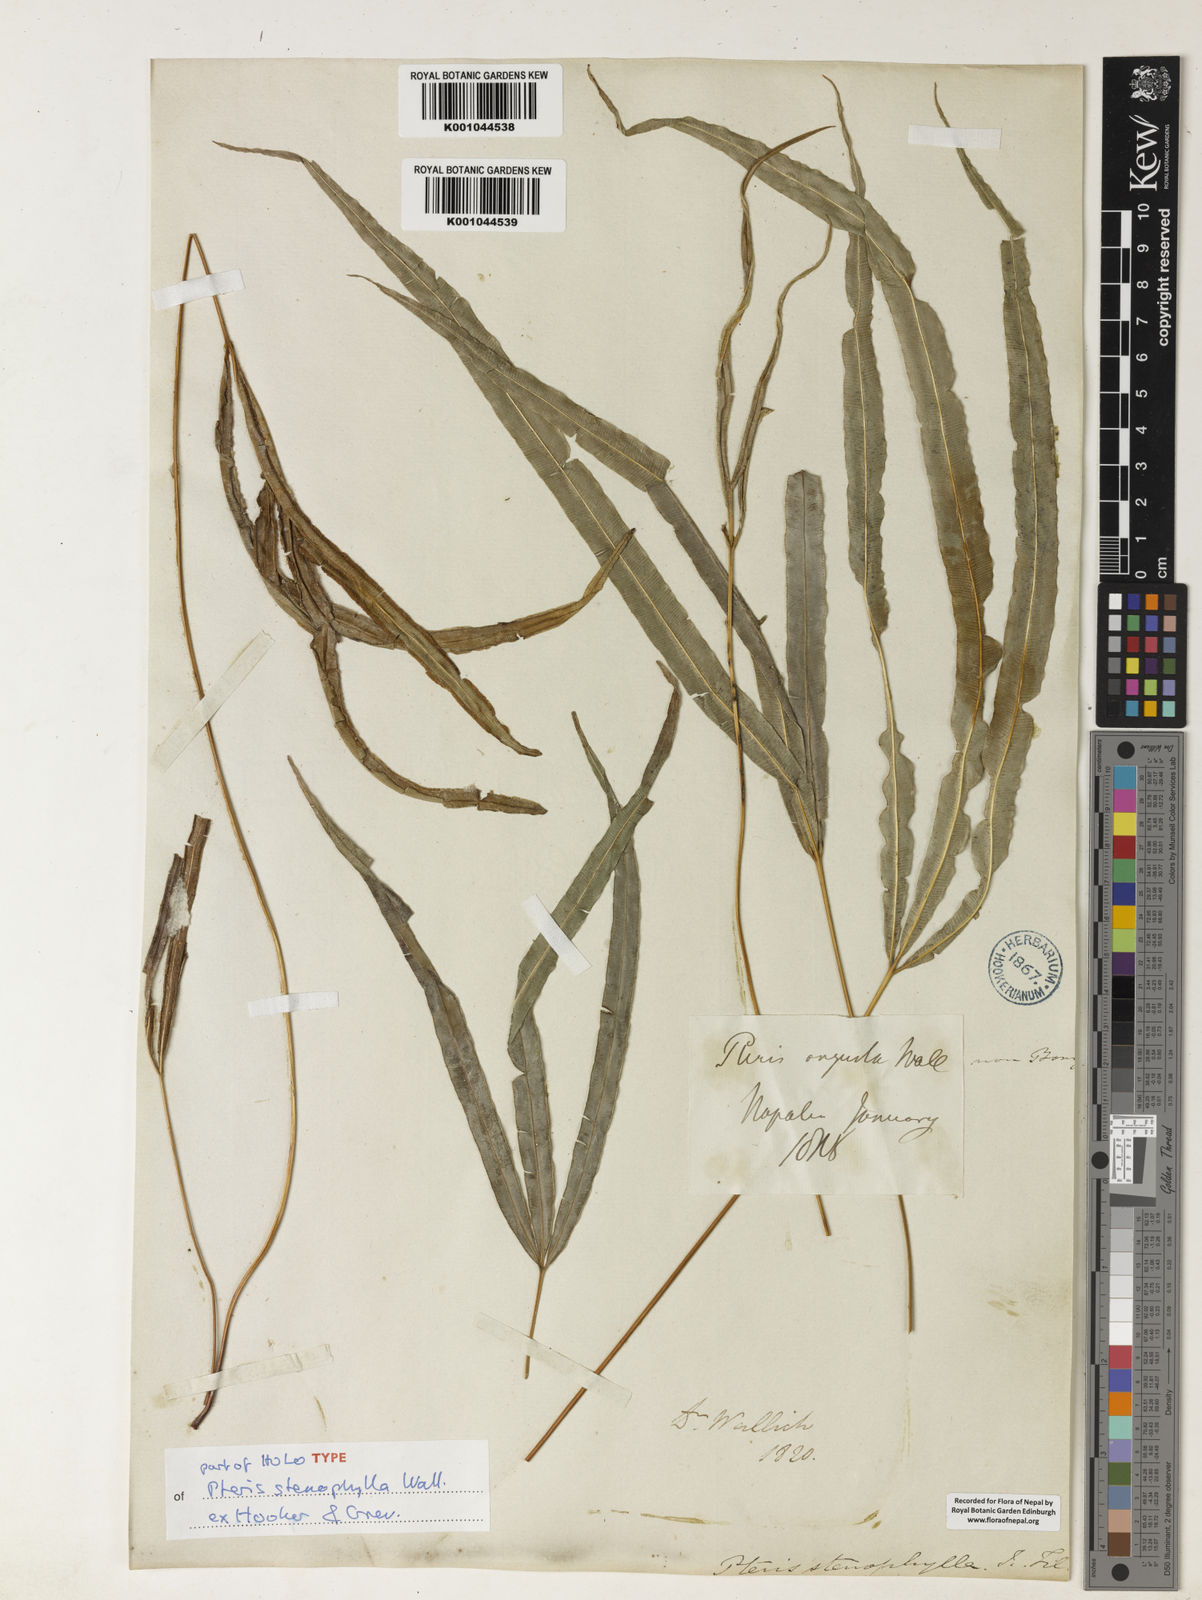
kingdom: Plantae
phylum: Tracheophyta
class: Polypodiopsida
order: Polypodiales
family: Pteridaceae
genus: Pteris
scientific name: Pteris stenophylla
